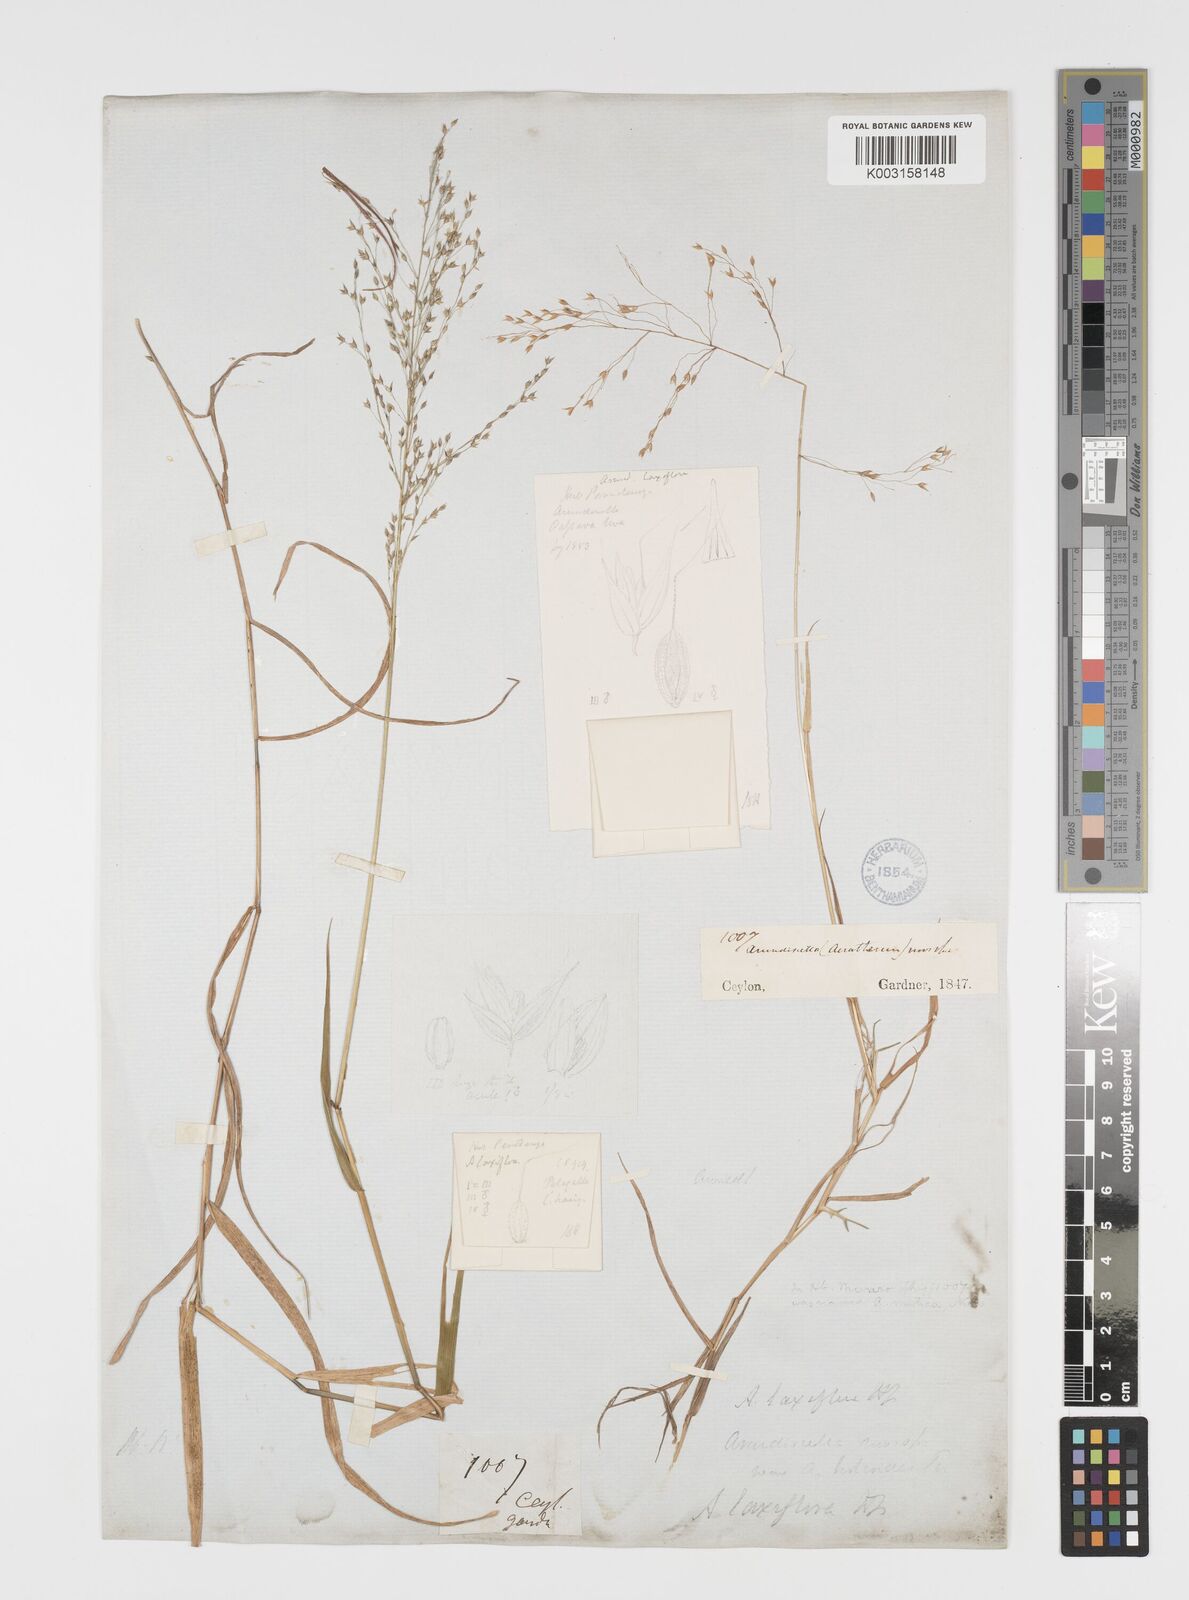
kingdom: Plantae
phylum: Tracheophyta
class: Liliopsida
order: Poales
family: Poaceae
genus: Arundinella
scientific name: Arundinella laxiflora
